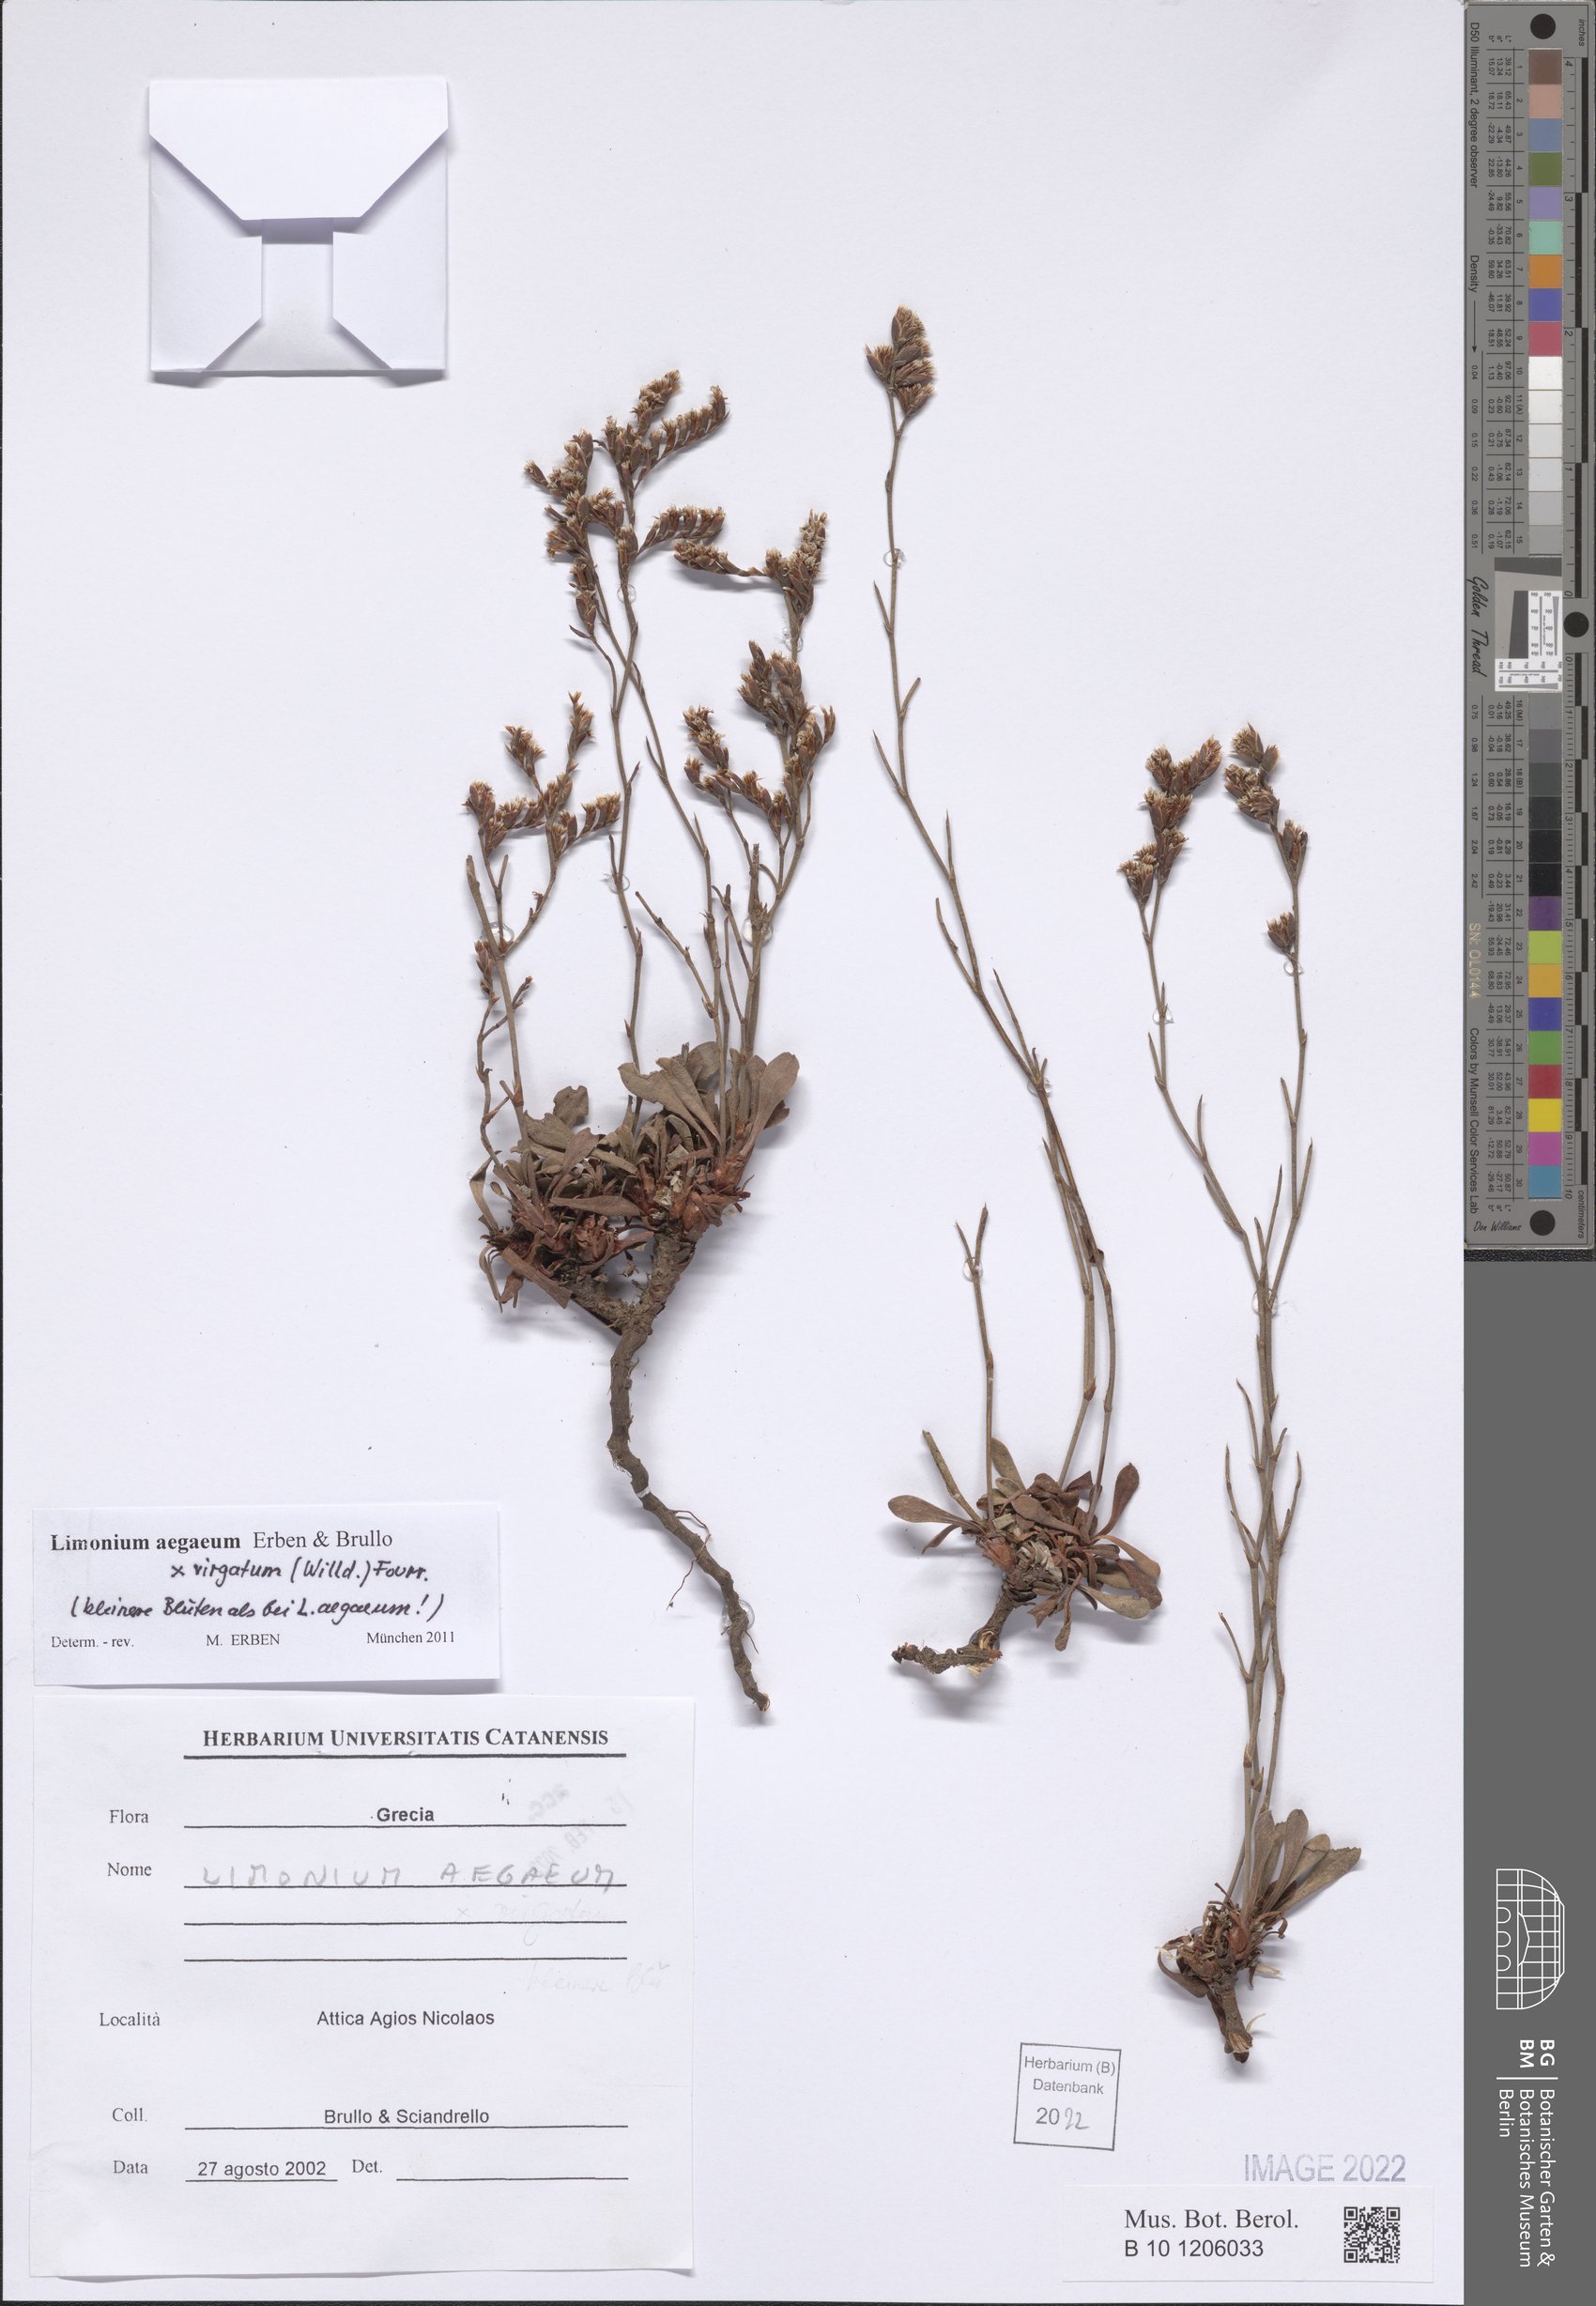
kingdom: Plantae
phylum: Tracheophyta
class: Magnoliopsida
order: Caryophyllales
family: Plumbaginaceae
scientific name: Plumbaginaceae
